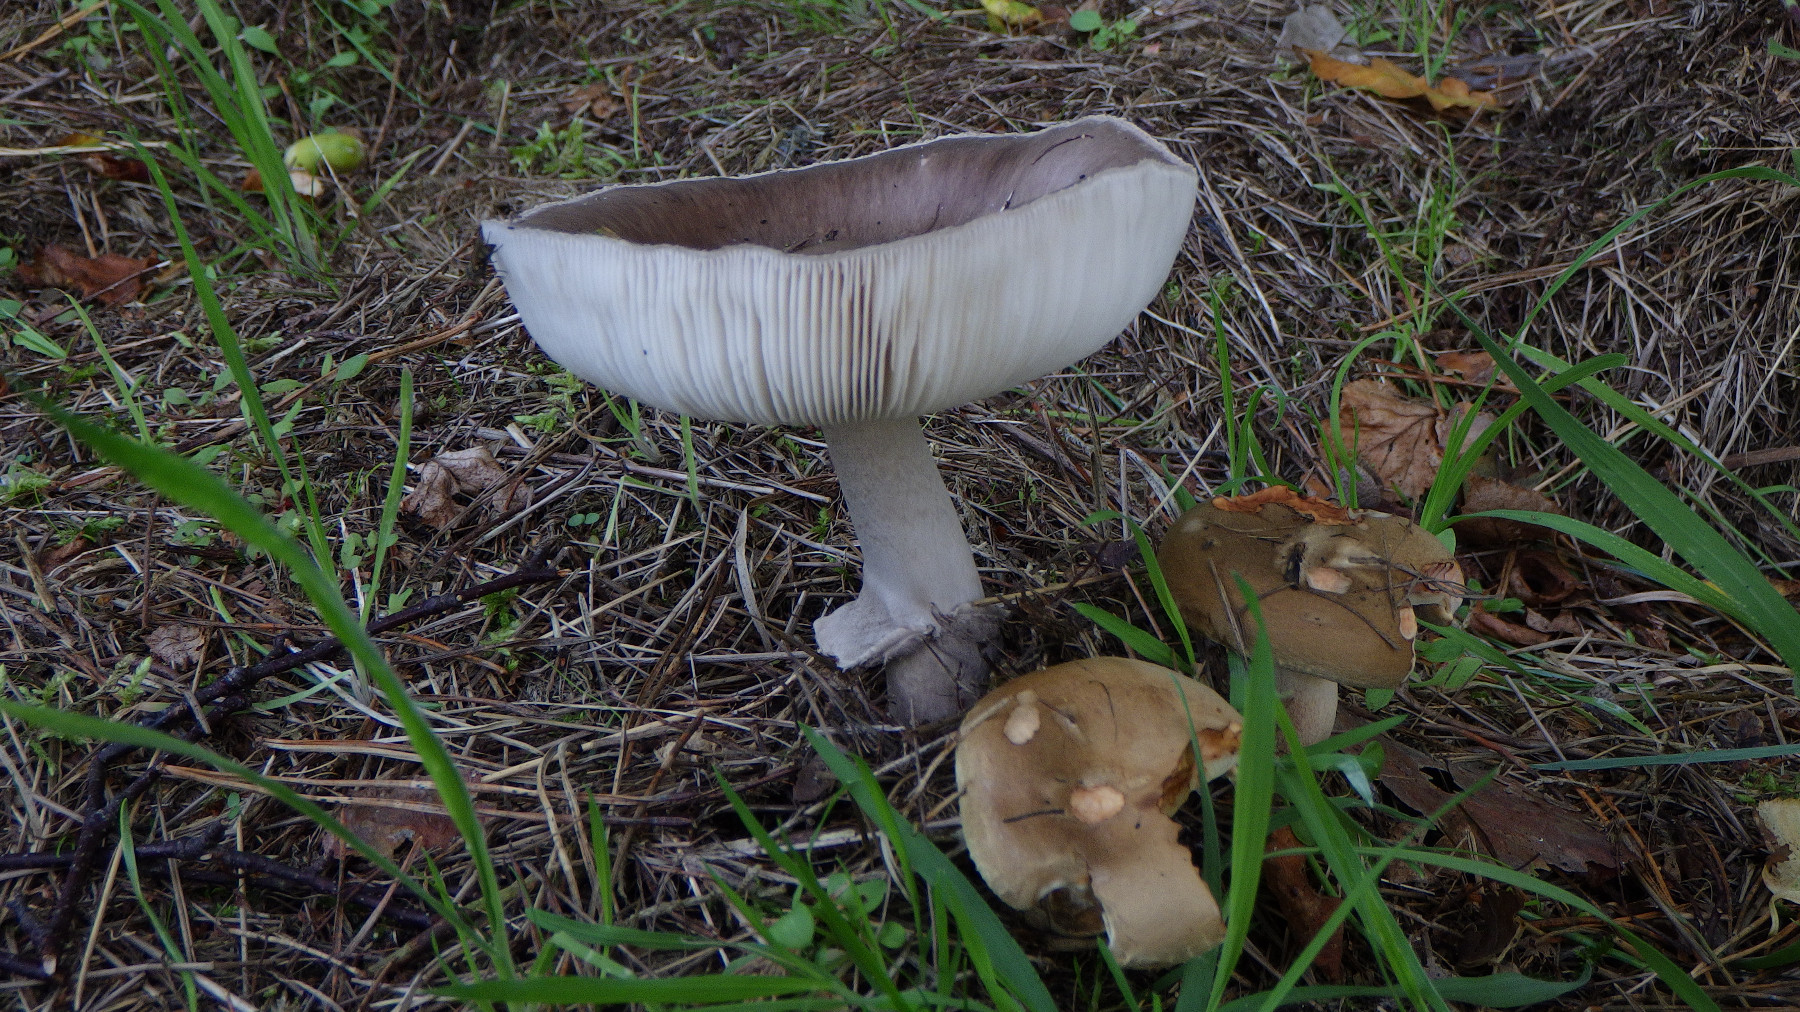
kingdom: Fungi
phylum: Basidiomycota
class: Agaricomycetes
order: Agaricales
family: Amanitaceae
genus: Amanita
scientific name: Amanita porphyria
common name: porfyr-fluesvamp
